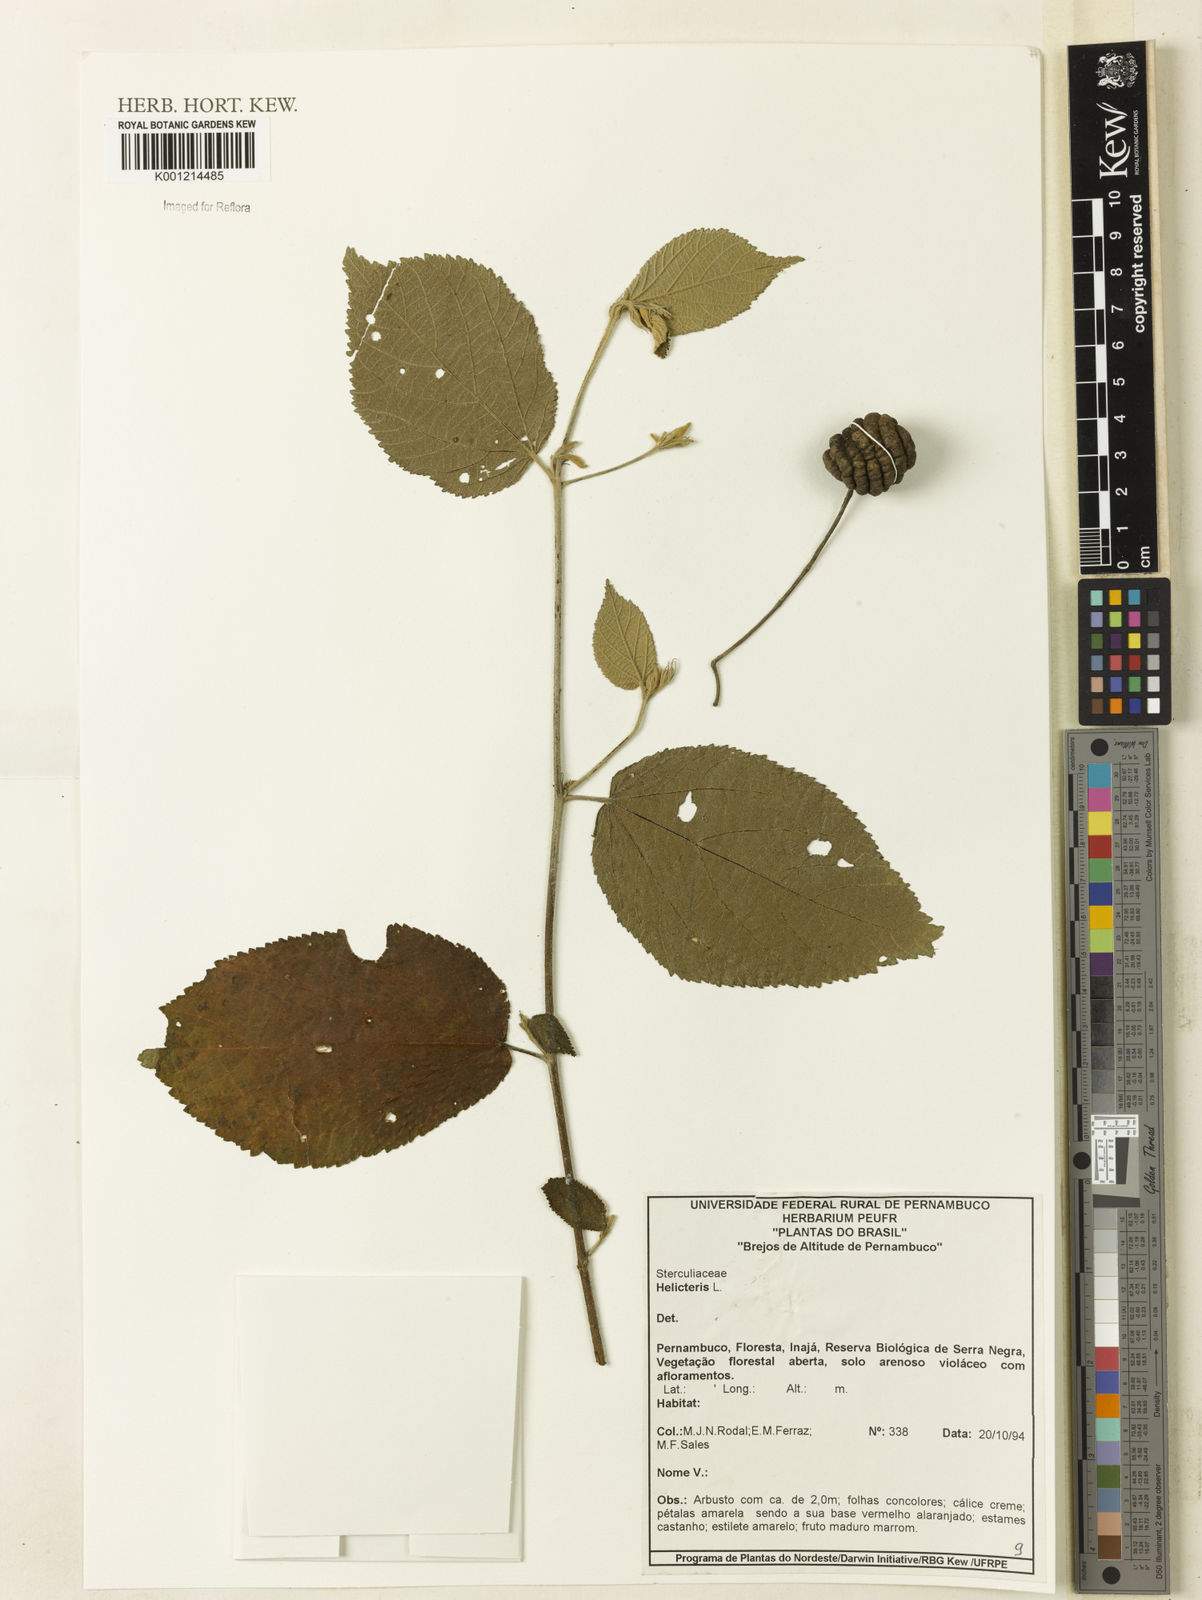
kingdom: Plantae
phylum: Tracheophyta
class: Magnoliopsida
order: Malvales
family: Malvaceae
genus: Helicteres
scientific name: Helicteres
